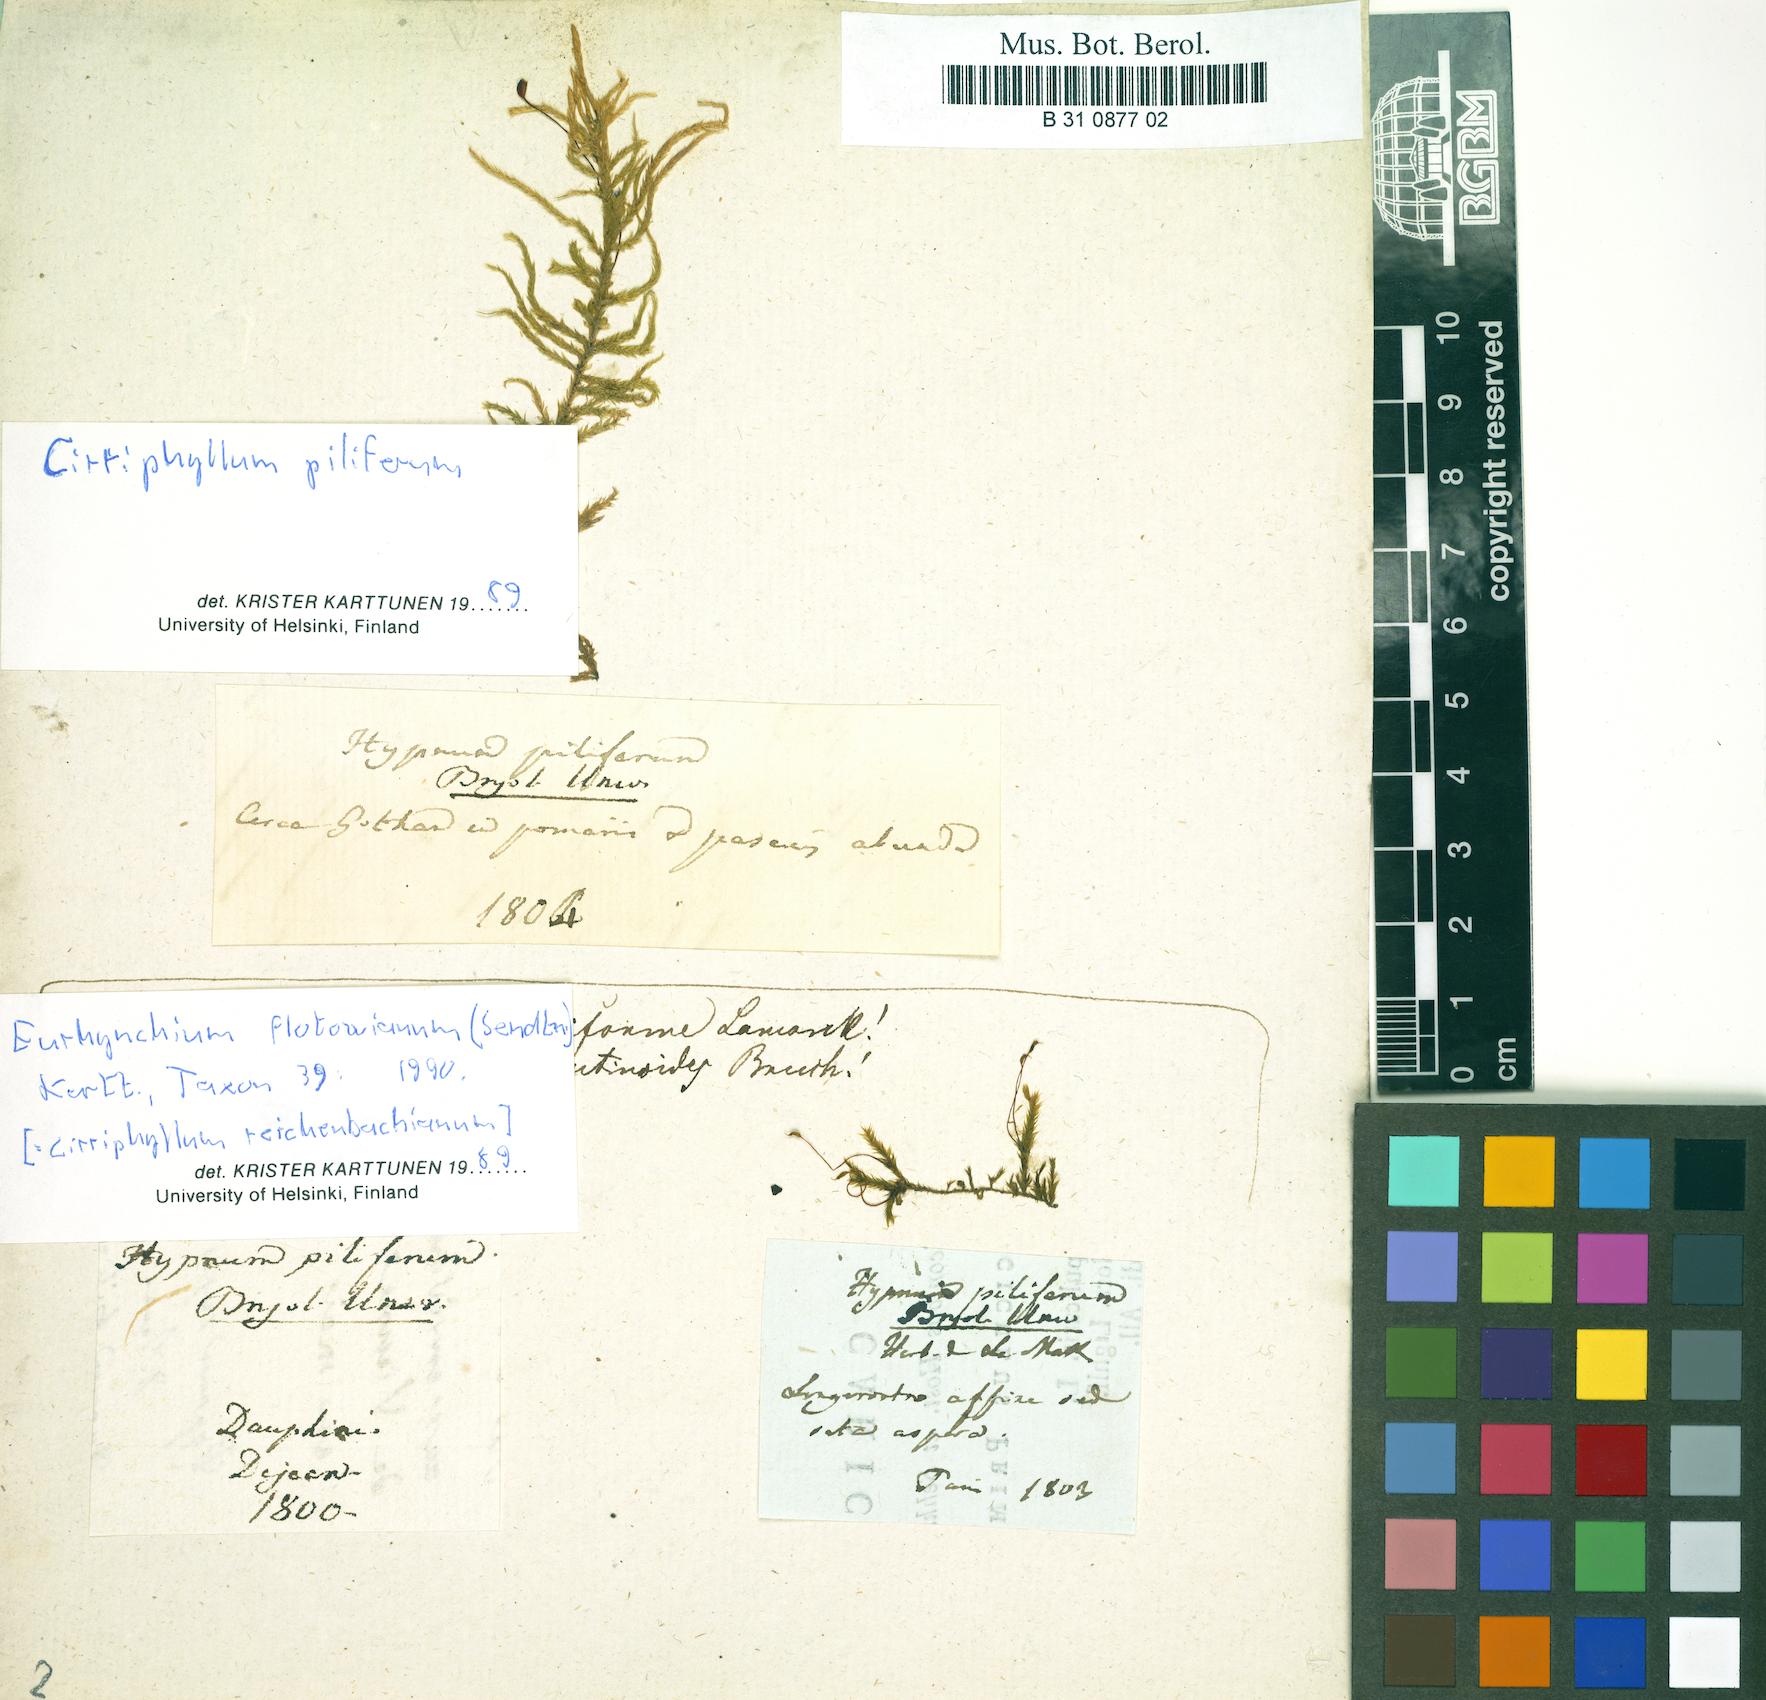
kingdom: Plantae
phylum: Bryophyta
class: Bryopsida
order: Hypnales
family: Brachytheciaceae
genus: Cirriphyllum
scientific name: Cirriphyllum piliferum
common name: Hair-pointed moss
